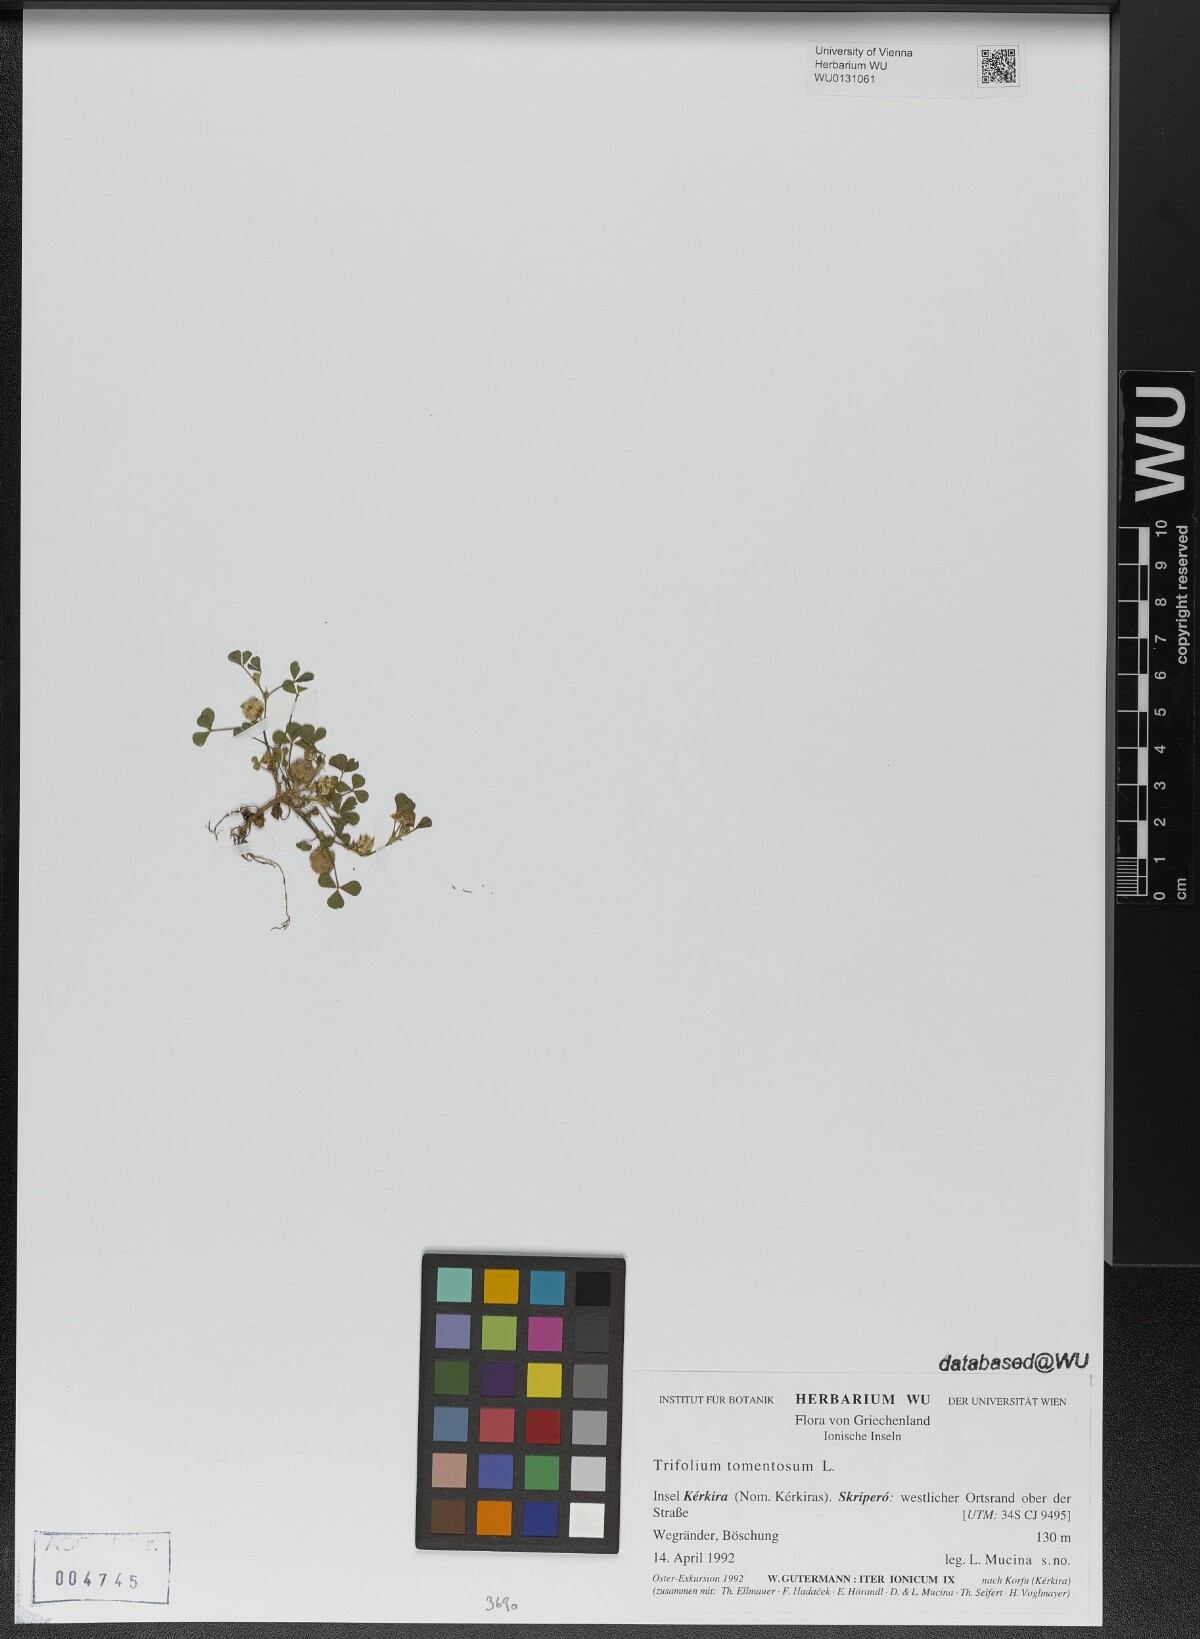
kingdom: Plantae
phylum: Tracheophyta
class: Magnoliopsida
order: Fabales
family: Fabaceae
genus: Trifolium
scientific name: Trifolium tomentosum
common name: Woolly clover
